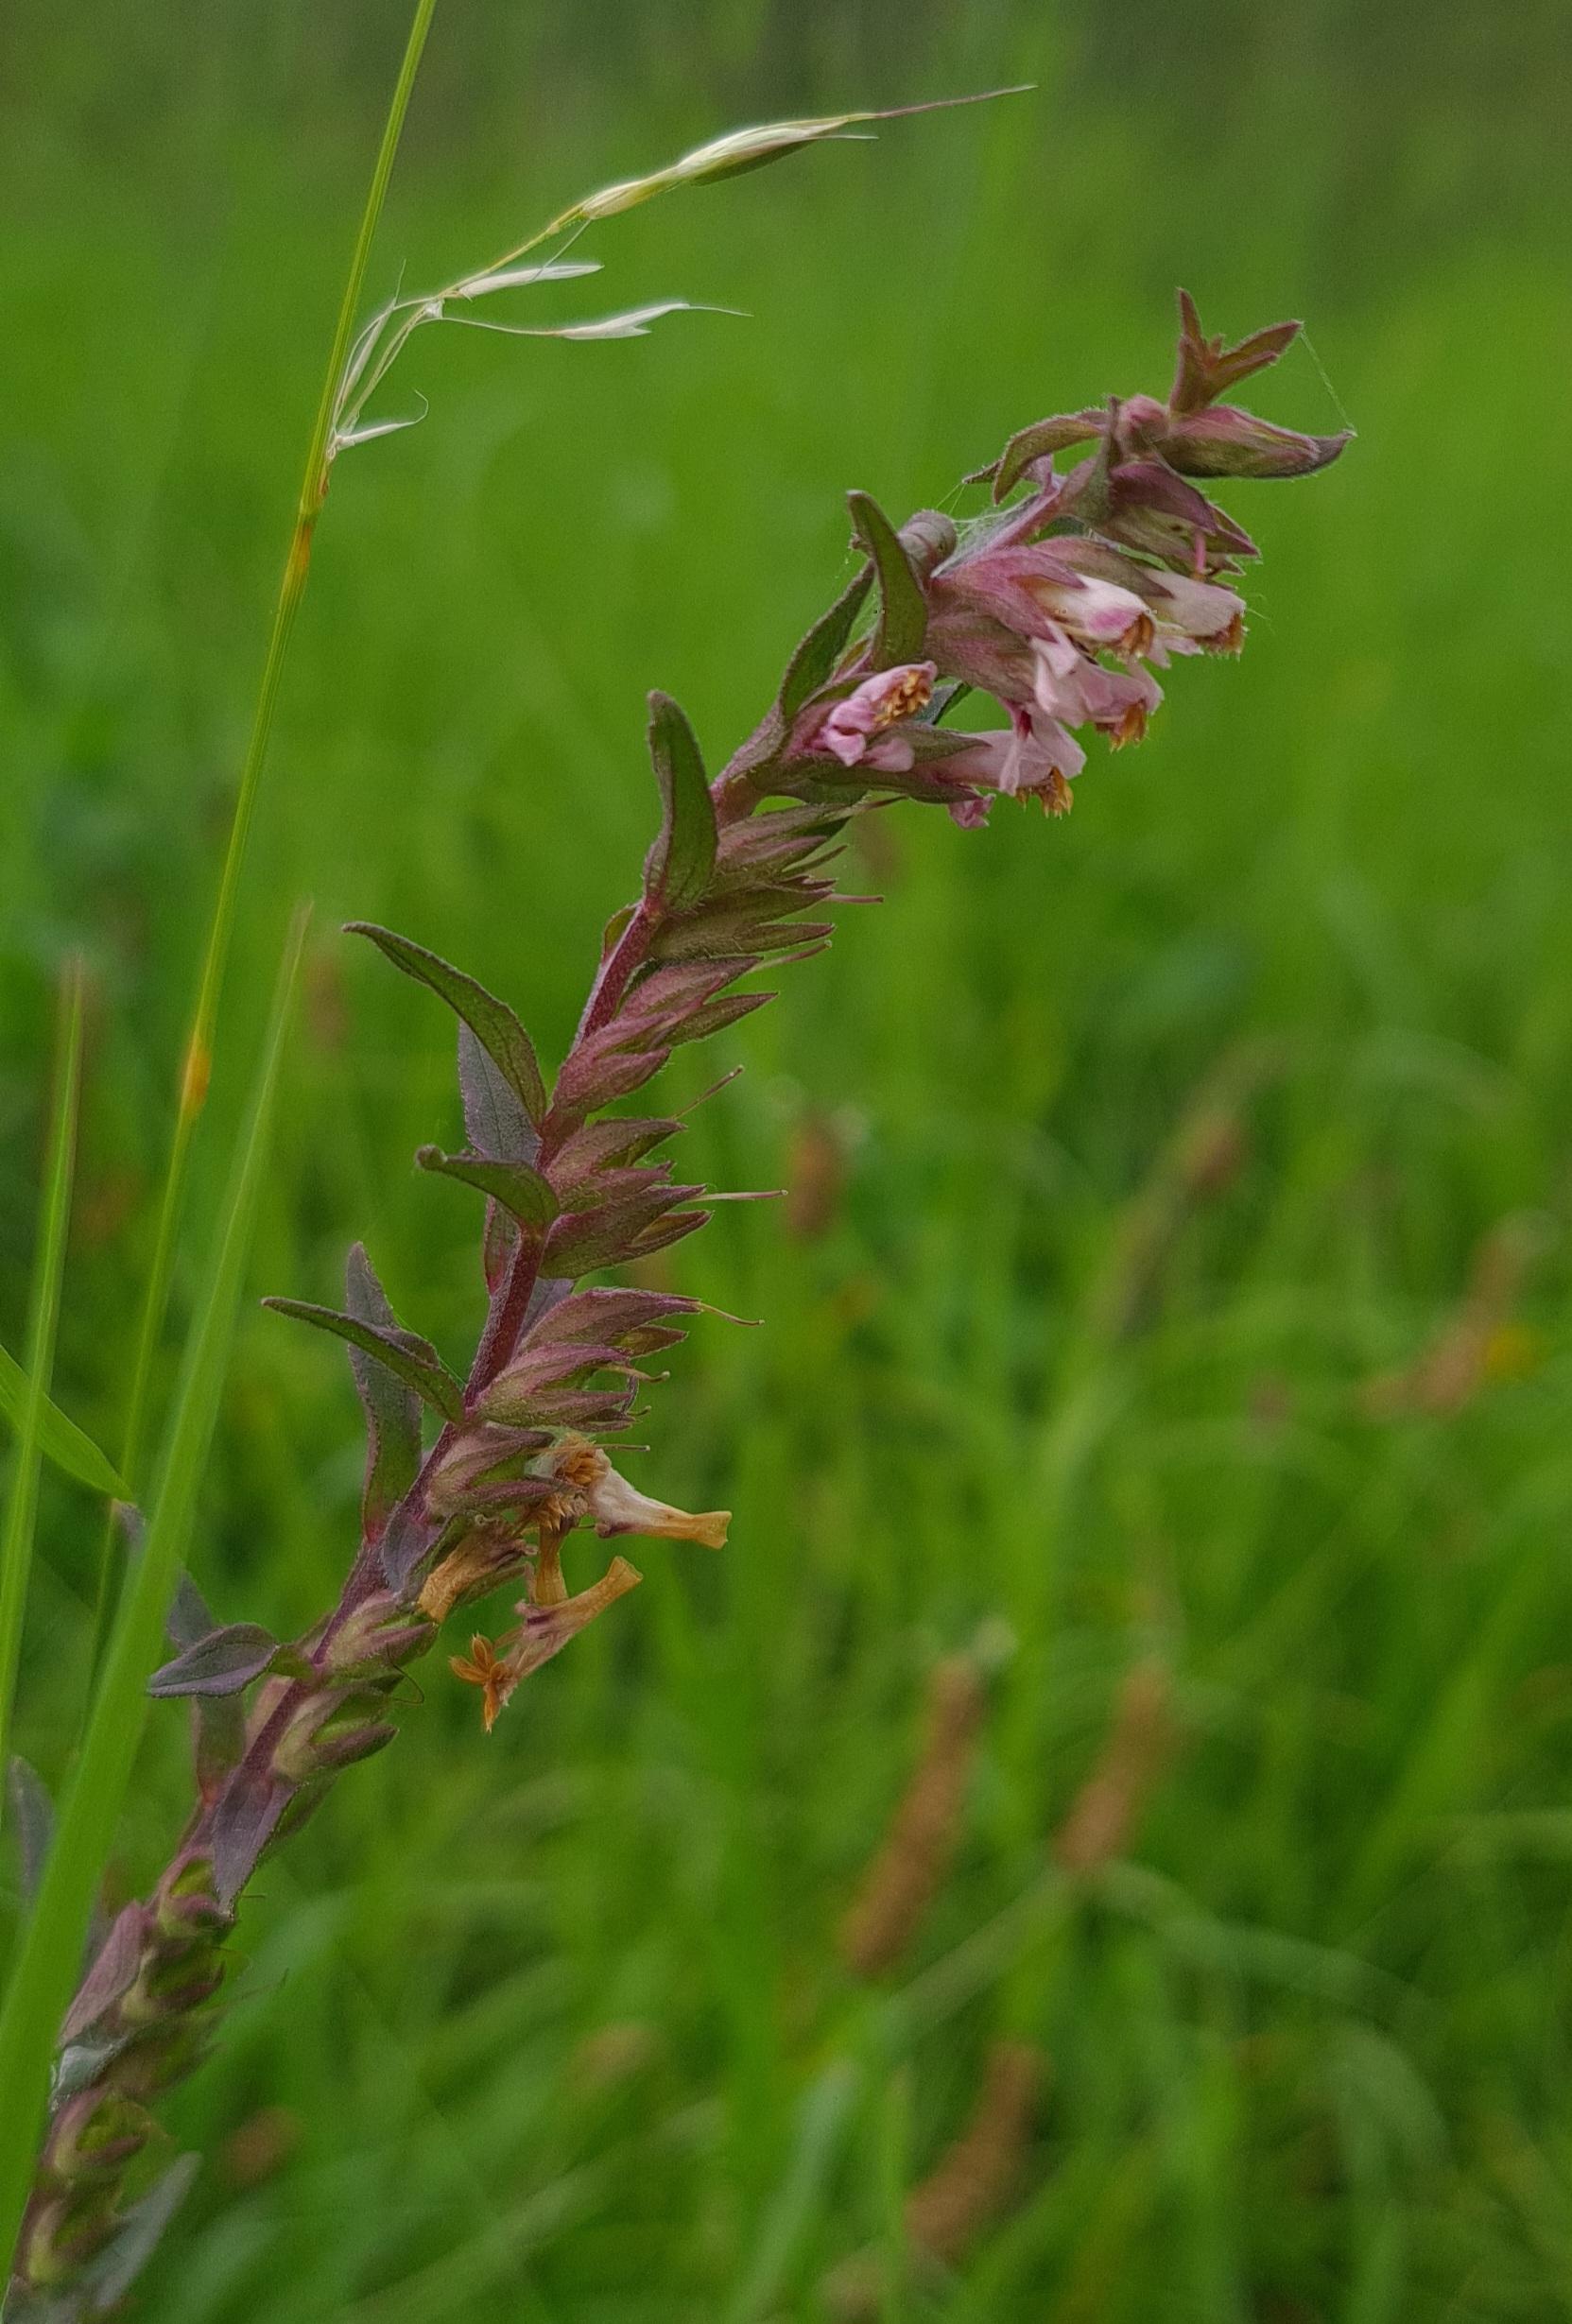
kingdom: Plantae
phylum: Tracheophyta
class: Magnoliopsida
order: Lamiales
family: Orobanchaceae
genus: Odontites
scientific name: Odontites
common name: Rødtopslægten
